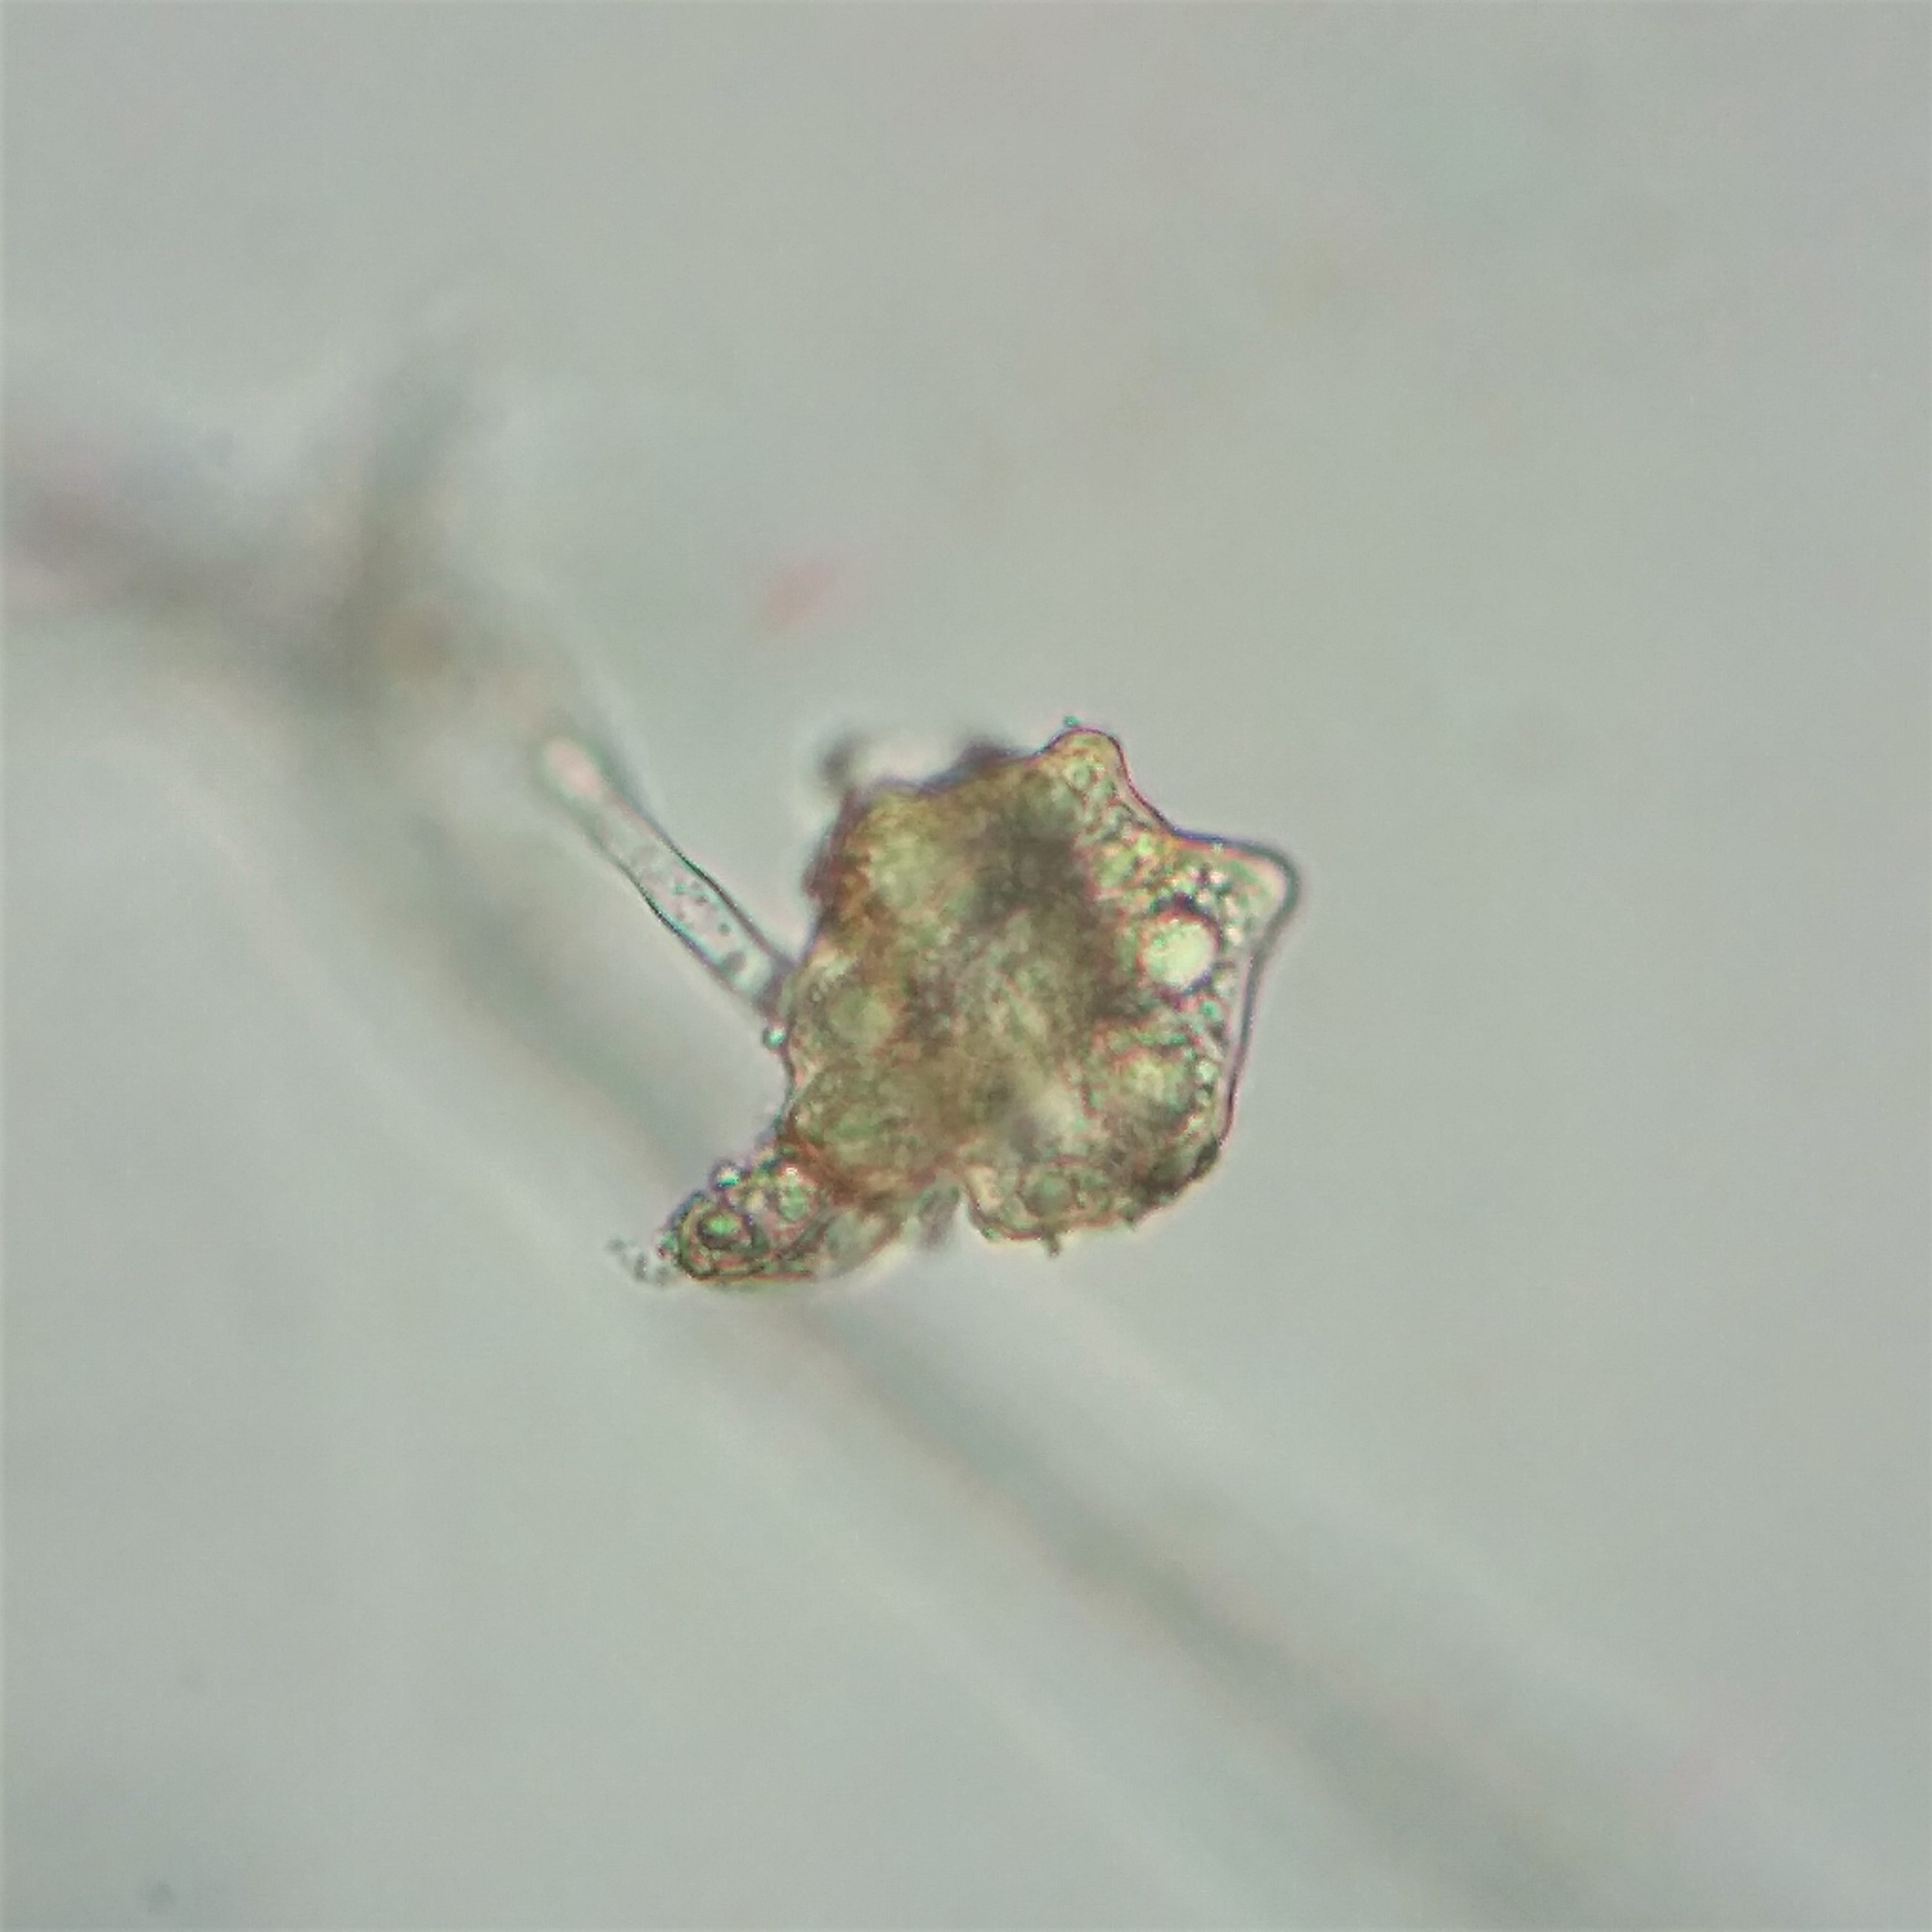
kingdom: Plantae
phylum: Bryophyta
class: Bryopsida
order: Bryales
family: Mniaceae
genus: Pohlia
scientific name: Pohlia lutescens
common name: Gul nikkemos
